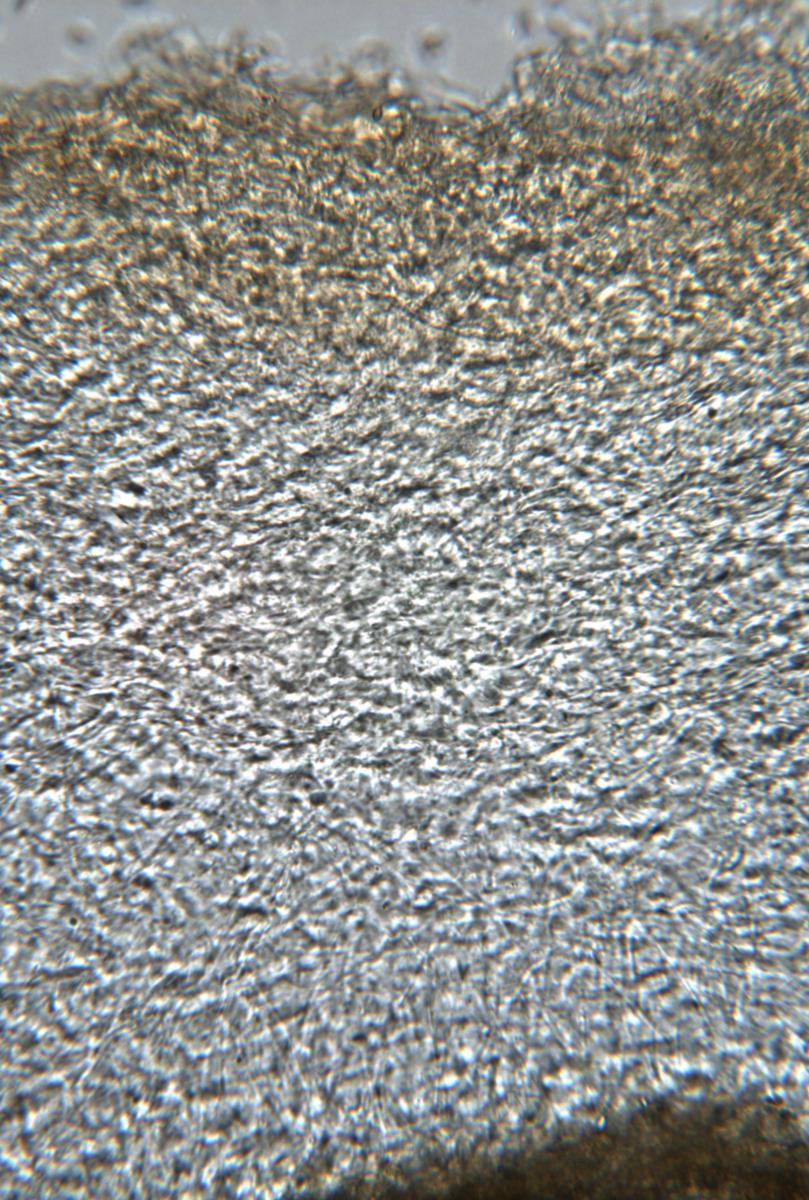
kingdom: Fungi
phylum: Basidiomycota
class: Agaricomycetes
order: Agaricales
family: Cortinariaceae
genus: Cortinarius
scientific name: Cortinarius epiphaeus
